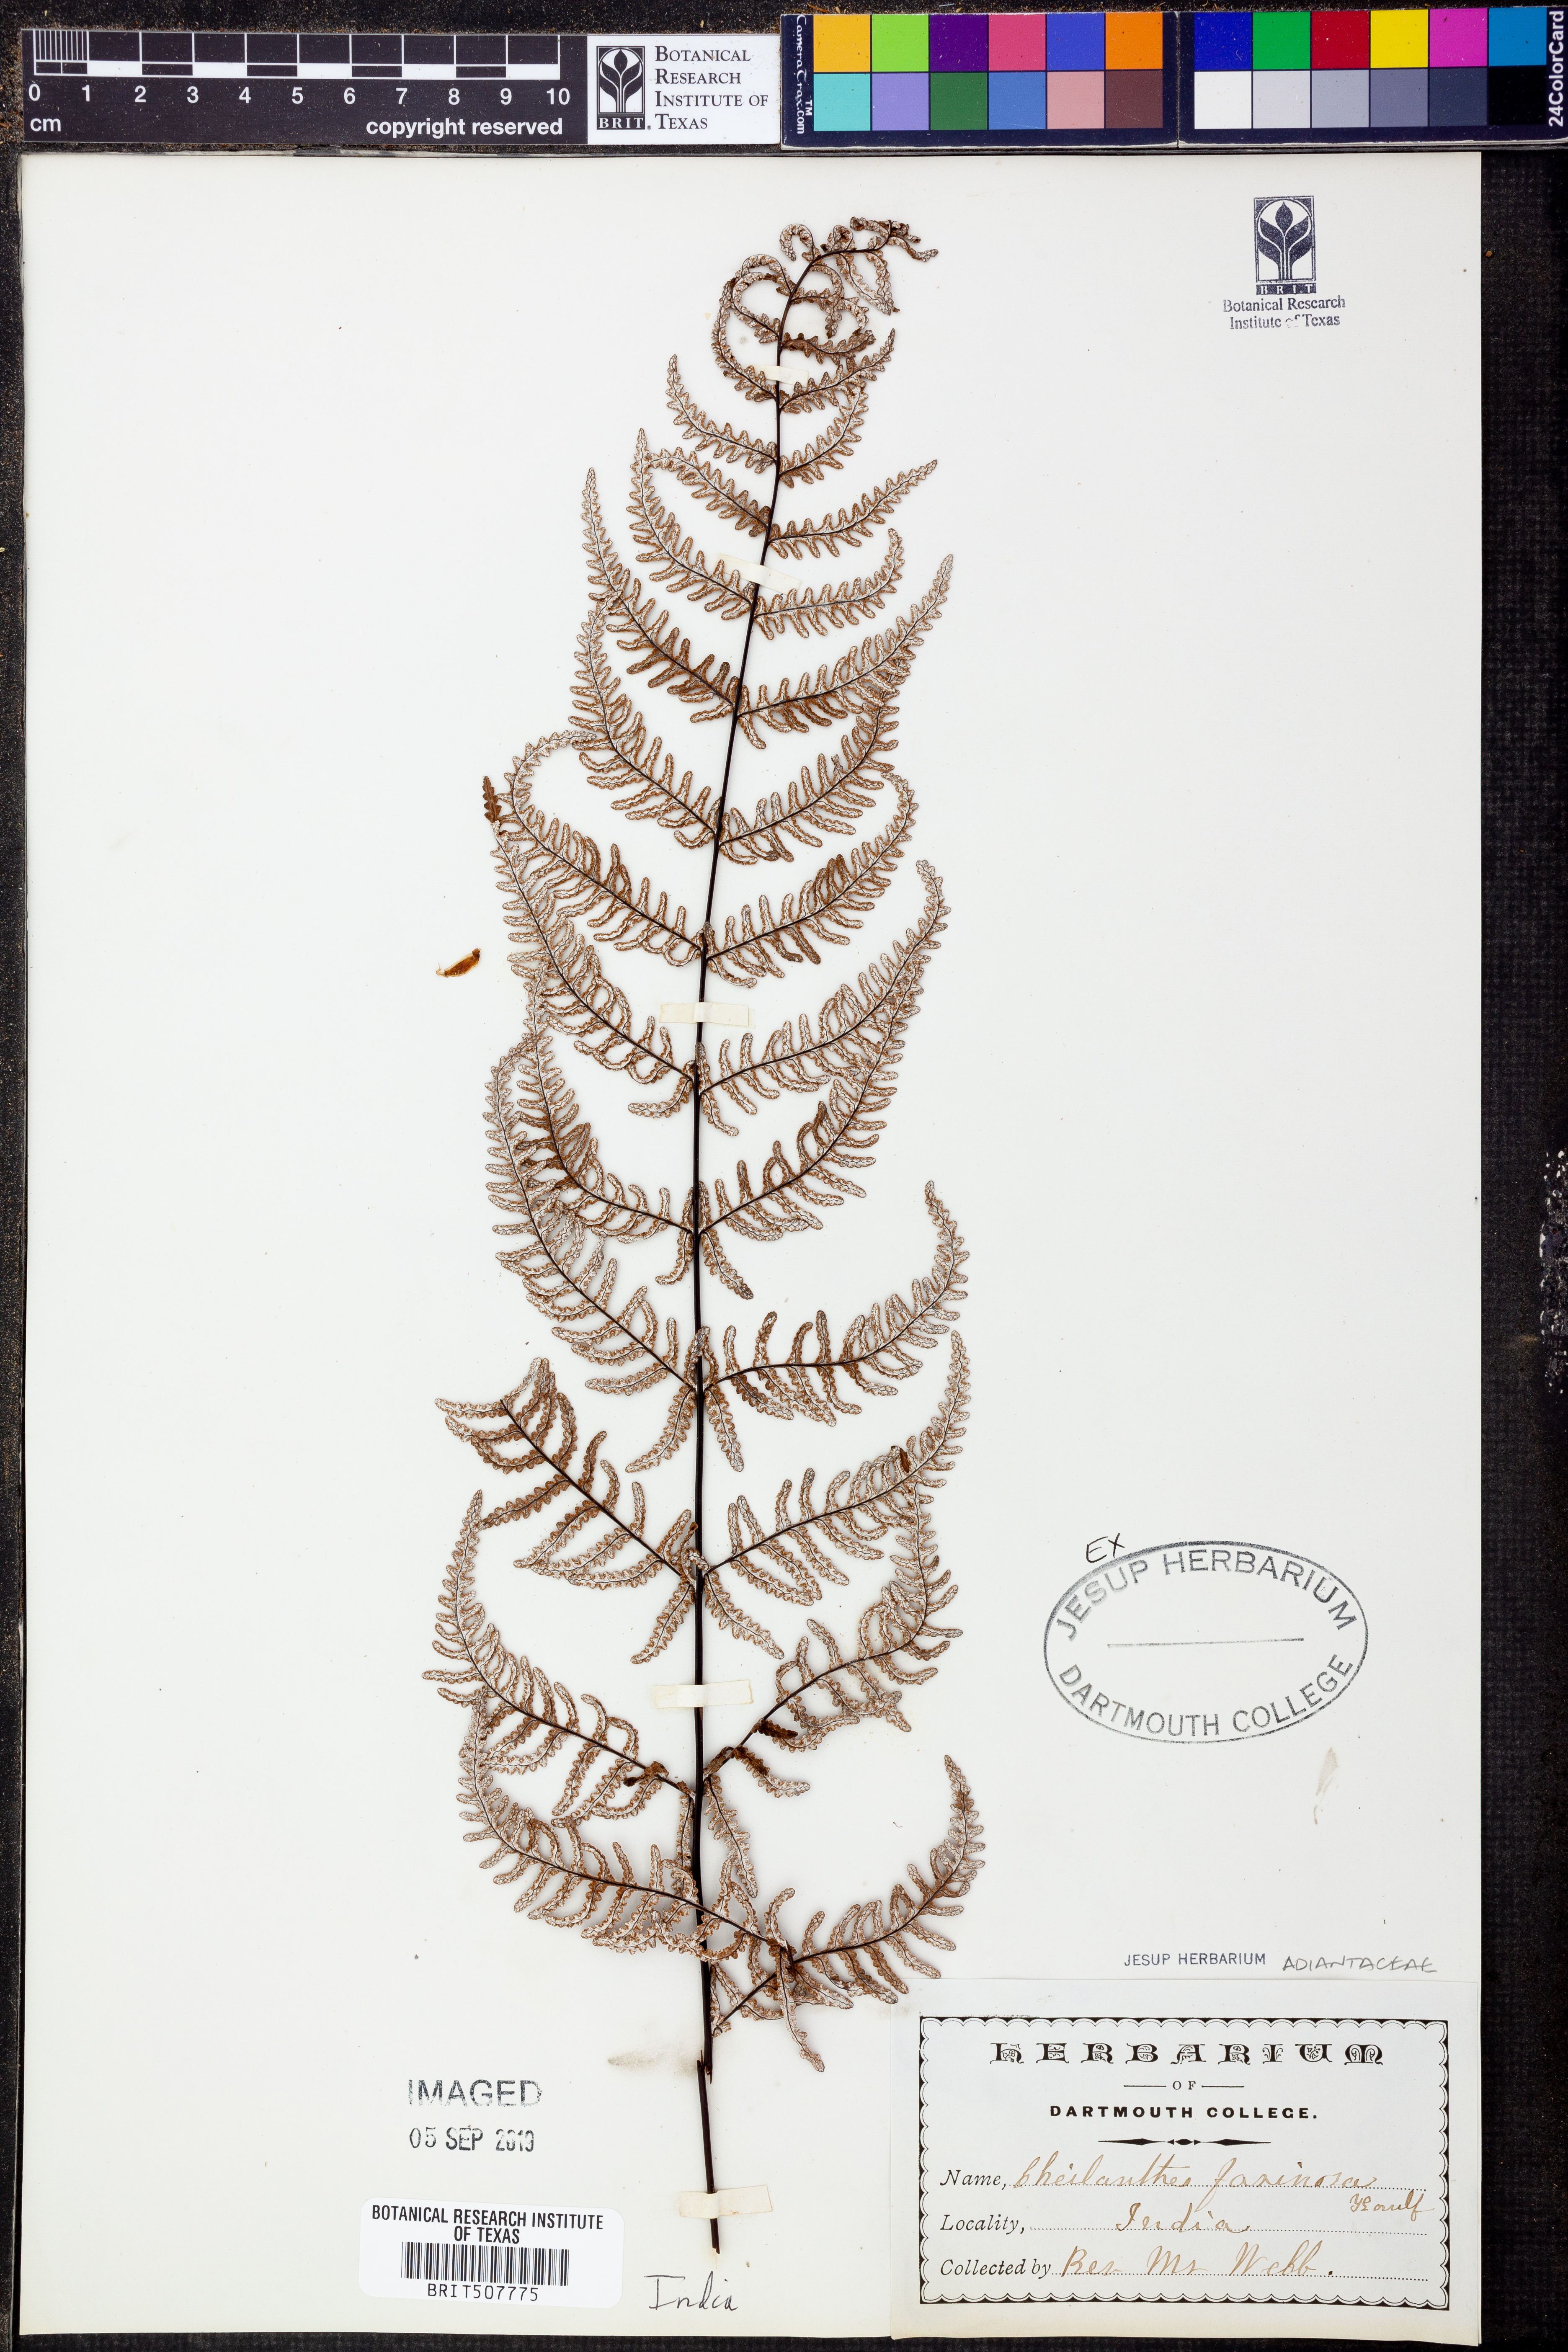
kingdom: Plantae
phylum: Tracheophyta
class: Polypodiopsida
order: Polypodiales
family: Pteridaceae
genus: Aleuritopteris
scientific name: Aleuritopteris farinosa
